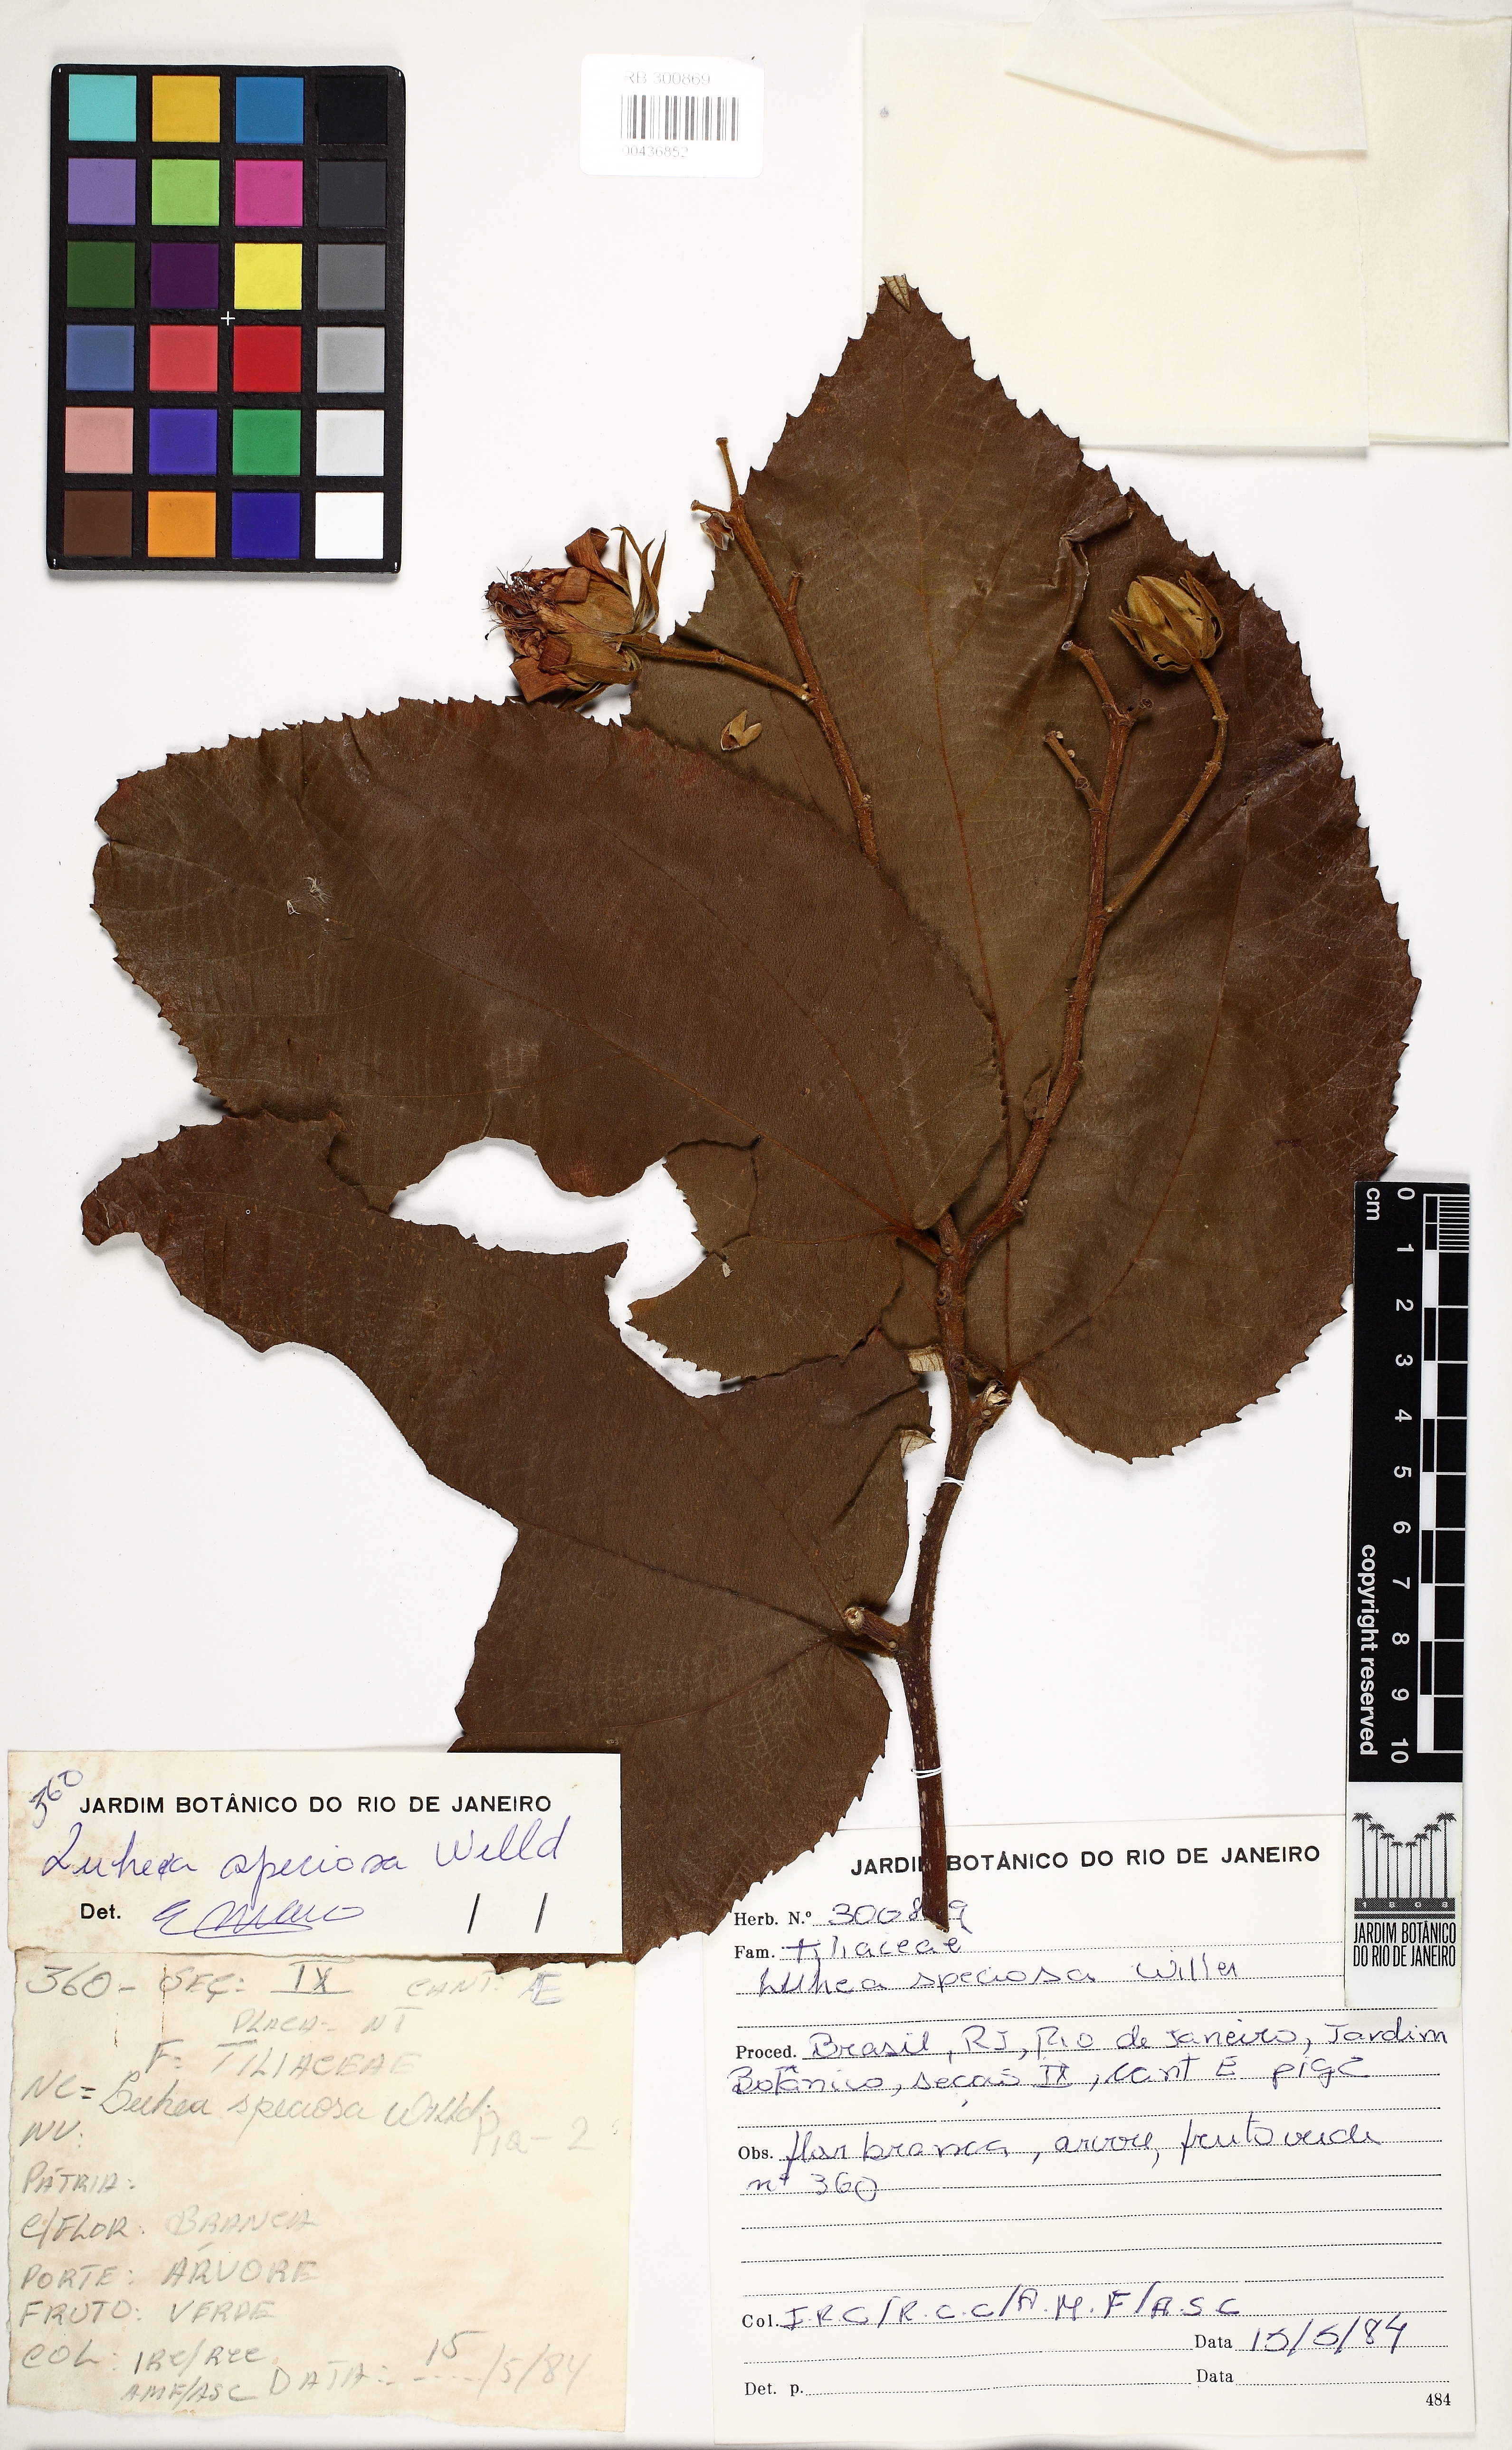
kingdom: Plantae
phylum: Tracheophyta
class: Magnoliopsida
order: Malvales
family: Malvaceae
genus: Luehea
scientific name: Luehea rufescens
